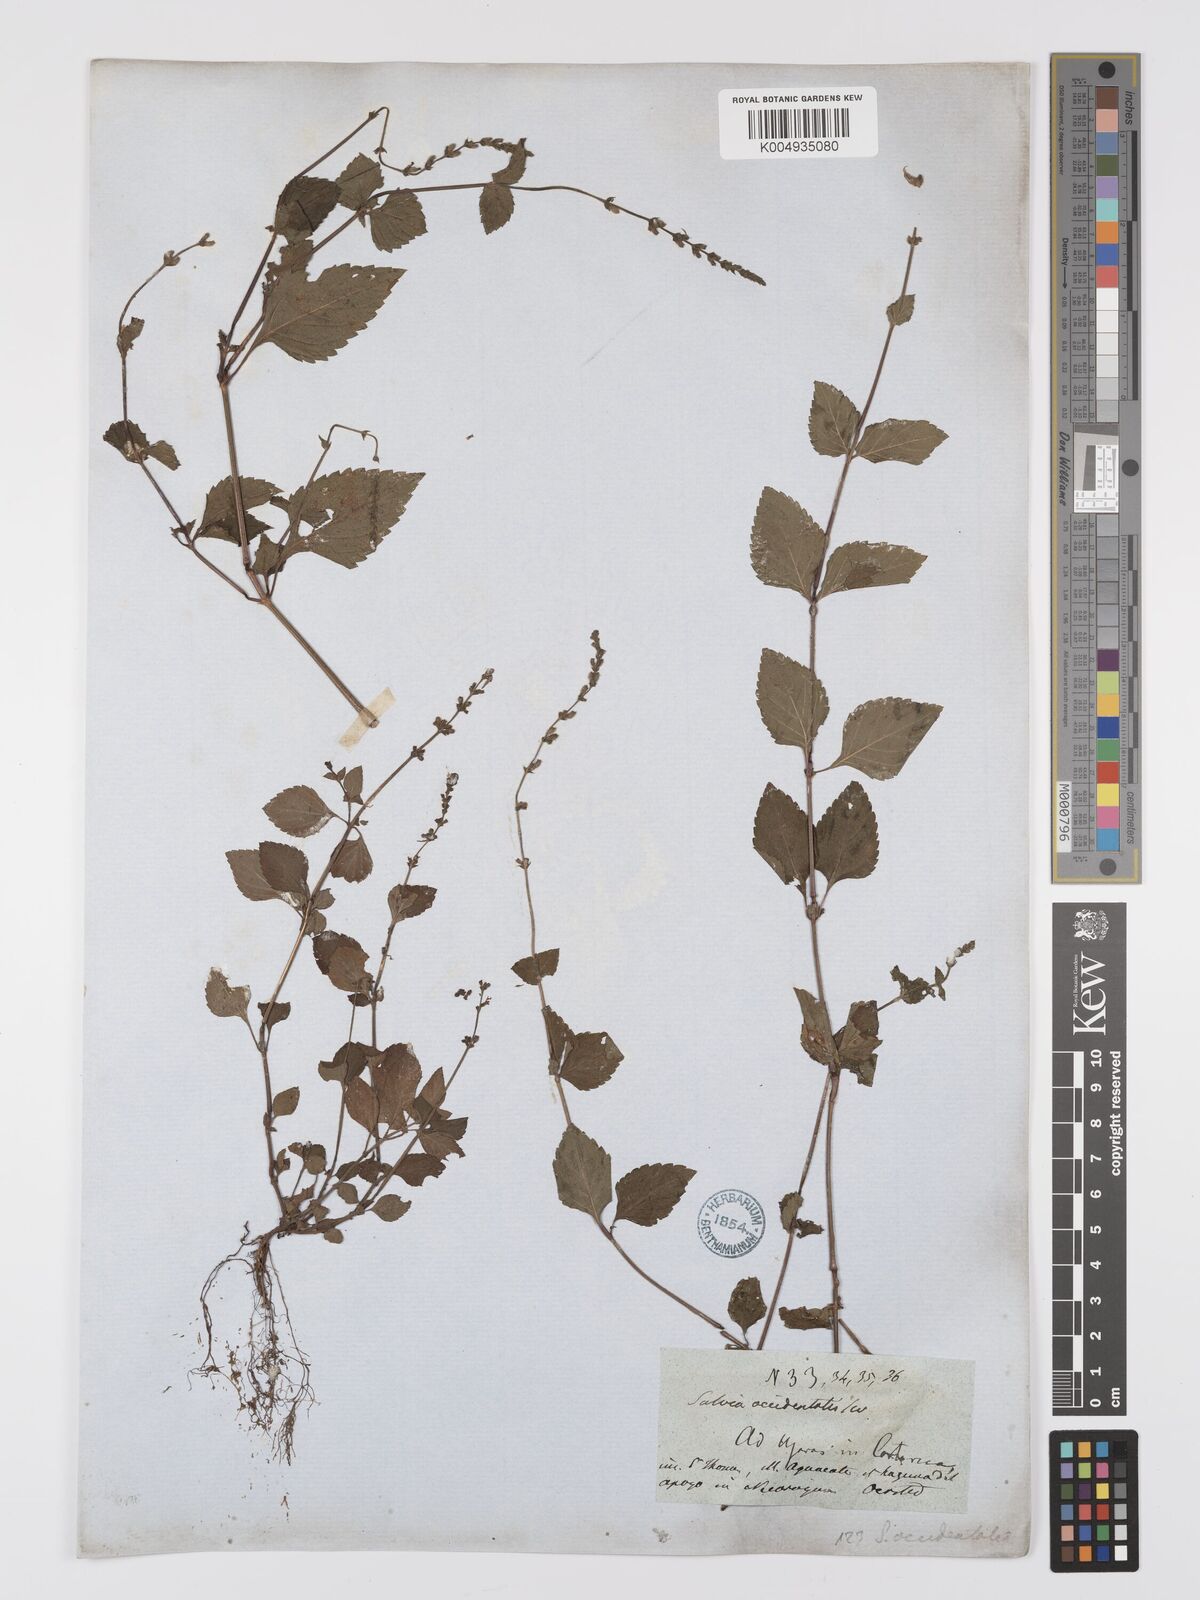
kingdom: Plantae
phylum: Tracheophyta
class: Magnoliopsida
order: Lamiales
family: Lamiaceae
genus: Salvia
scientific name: Salvia occidentalis
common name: West indian sage
